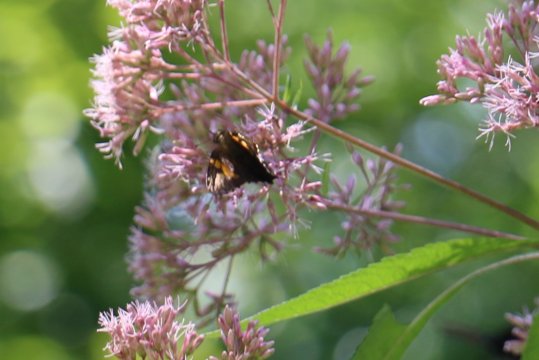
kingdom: Animalia
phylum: Arthropoda
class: Insecta
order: Lepidoptera
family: Hesperiidae
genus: Epargyreus
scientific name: Epargyreus clarus
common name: Silver-spotted Skipper
